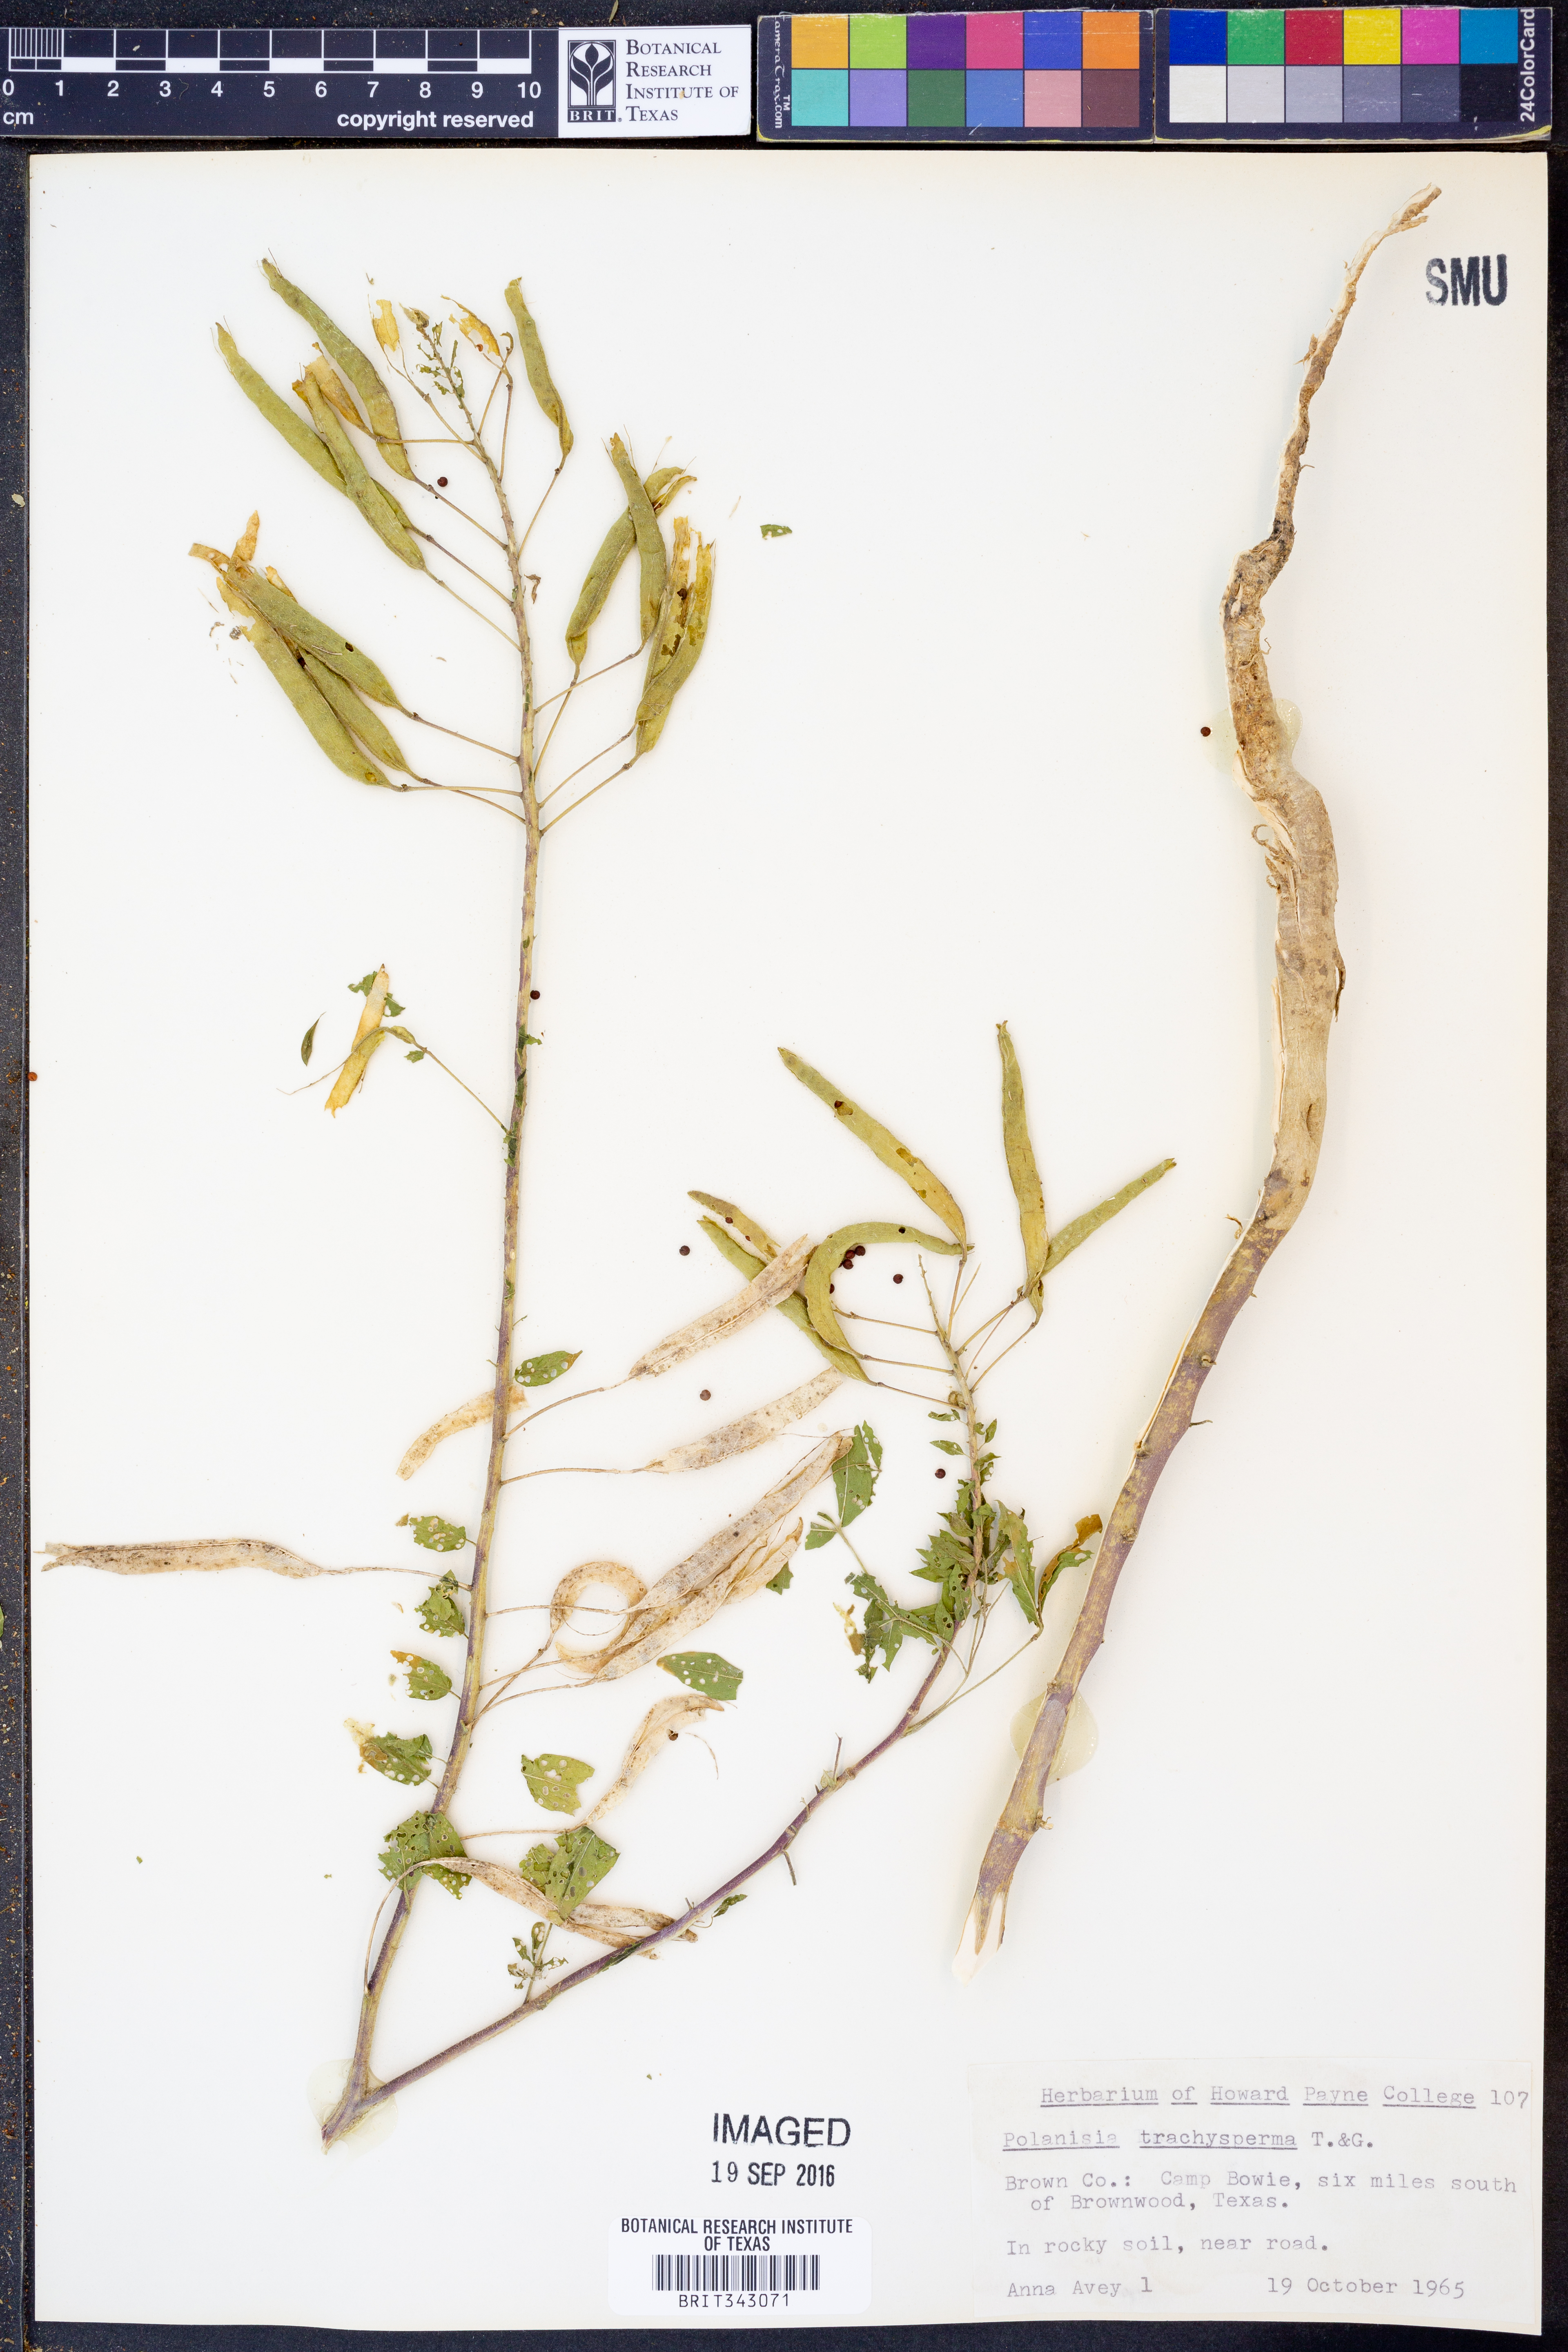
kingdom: Plantae
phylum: Tracheophyta
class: Magnoliopsida
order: Brassicales
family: Cleomaceae
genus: Polanisia
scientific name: Polanisia trachysperma
